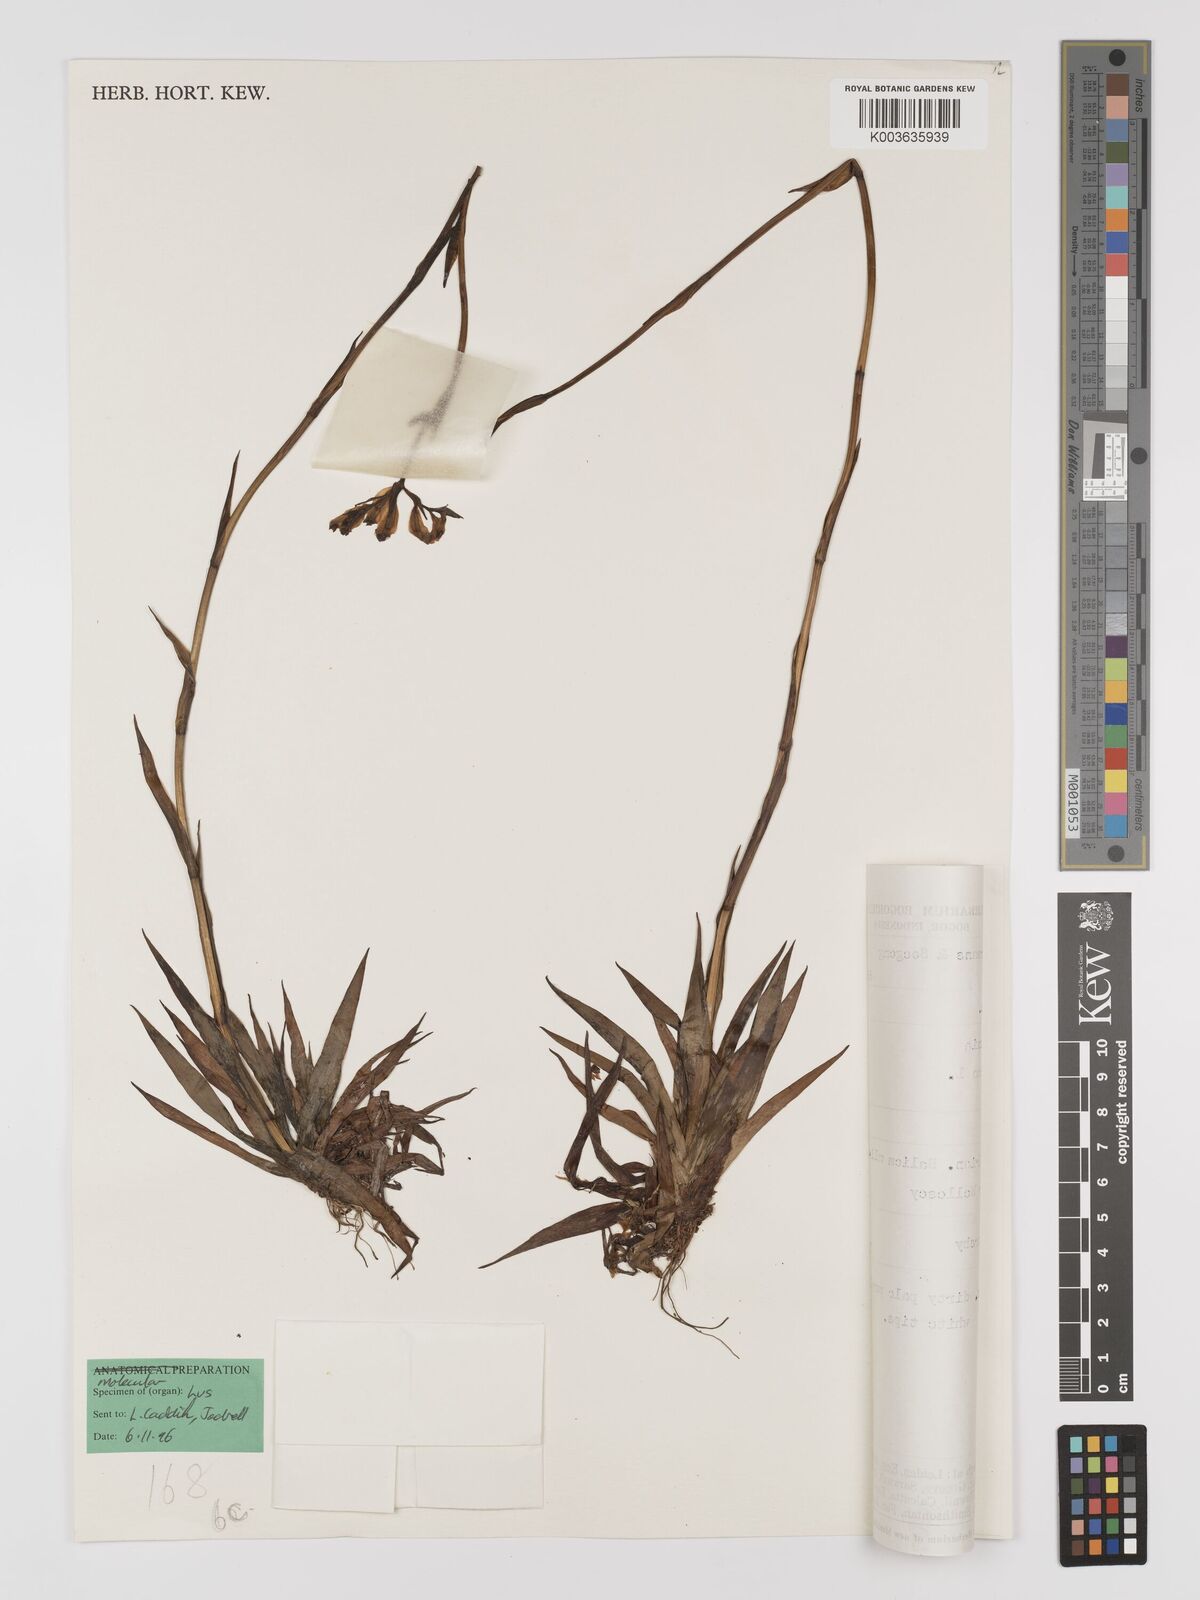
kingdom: Plantae
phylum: Tracheophyta
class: Liliopsida
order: Dioscoreales
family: Burmanniaceae
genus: Burmannia
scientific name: Burmannia disticha
